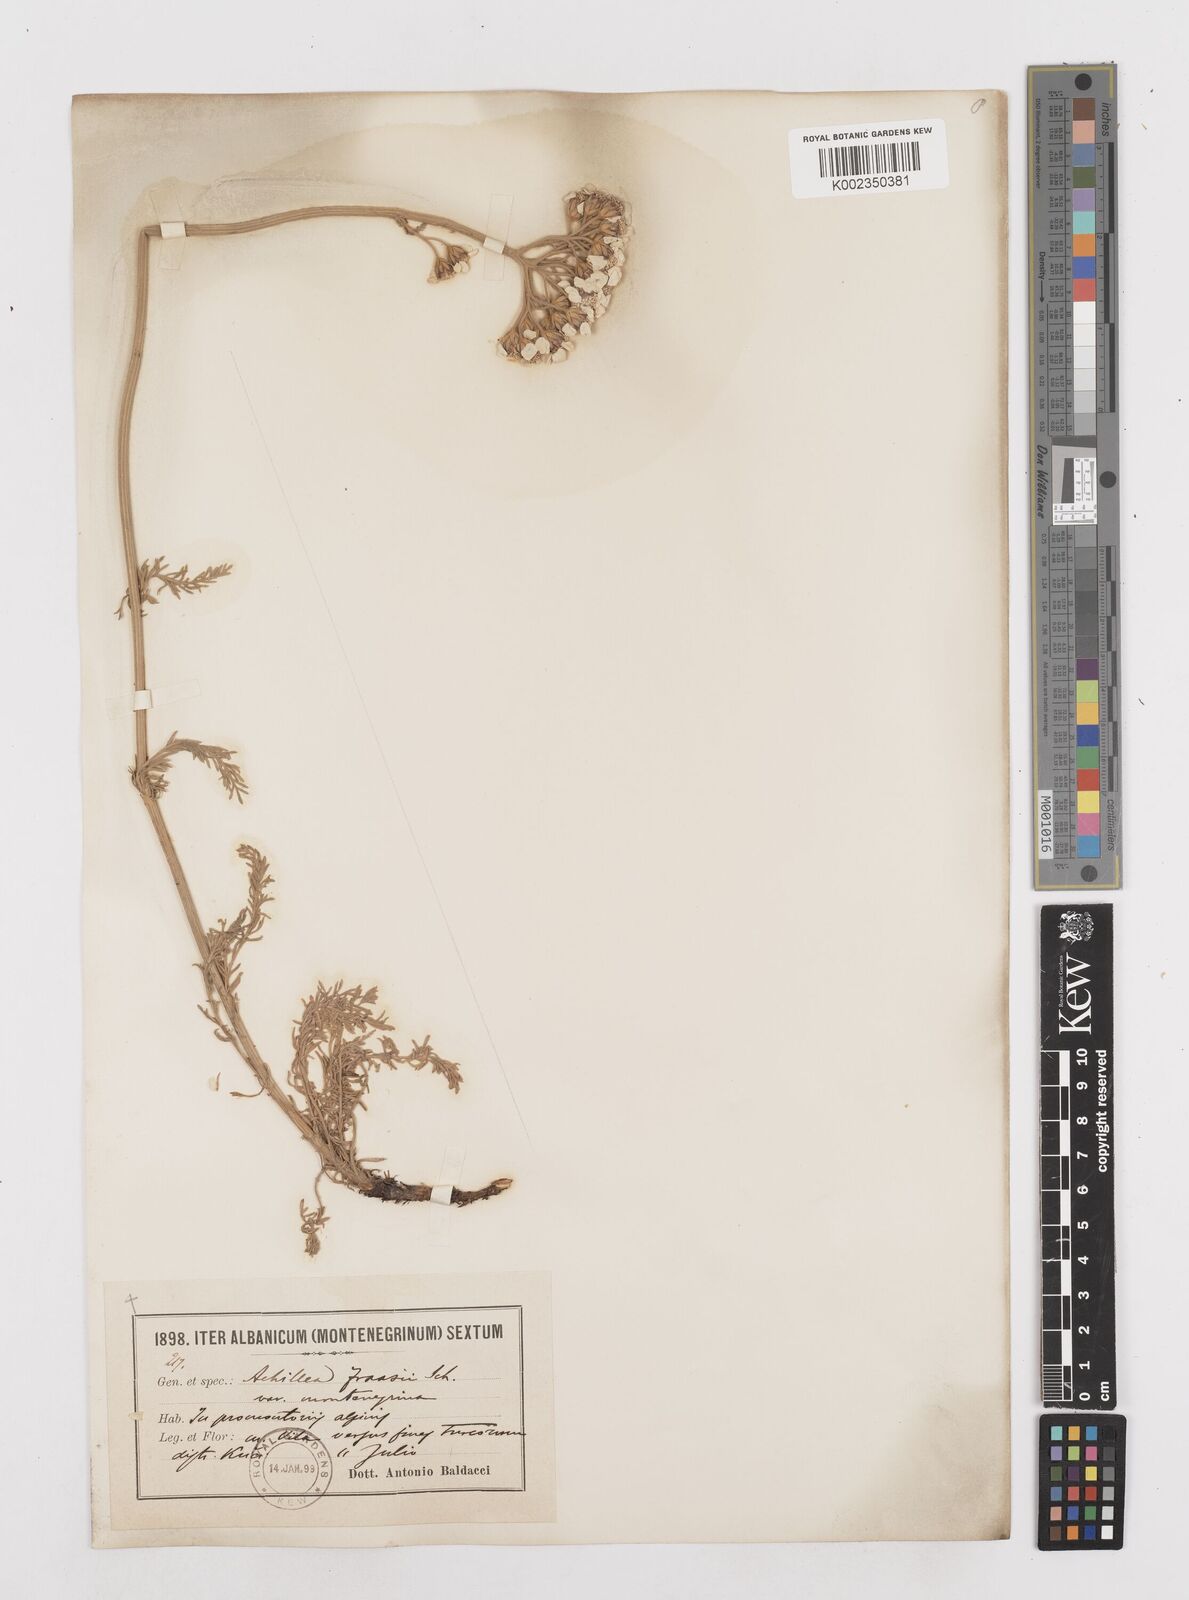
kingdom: Plantae
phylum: Tracheophyta
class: Magnoliopsida
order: Asterales
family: Asteraceae
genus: Achillea
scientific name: Achillea fraasii
